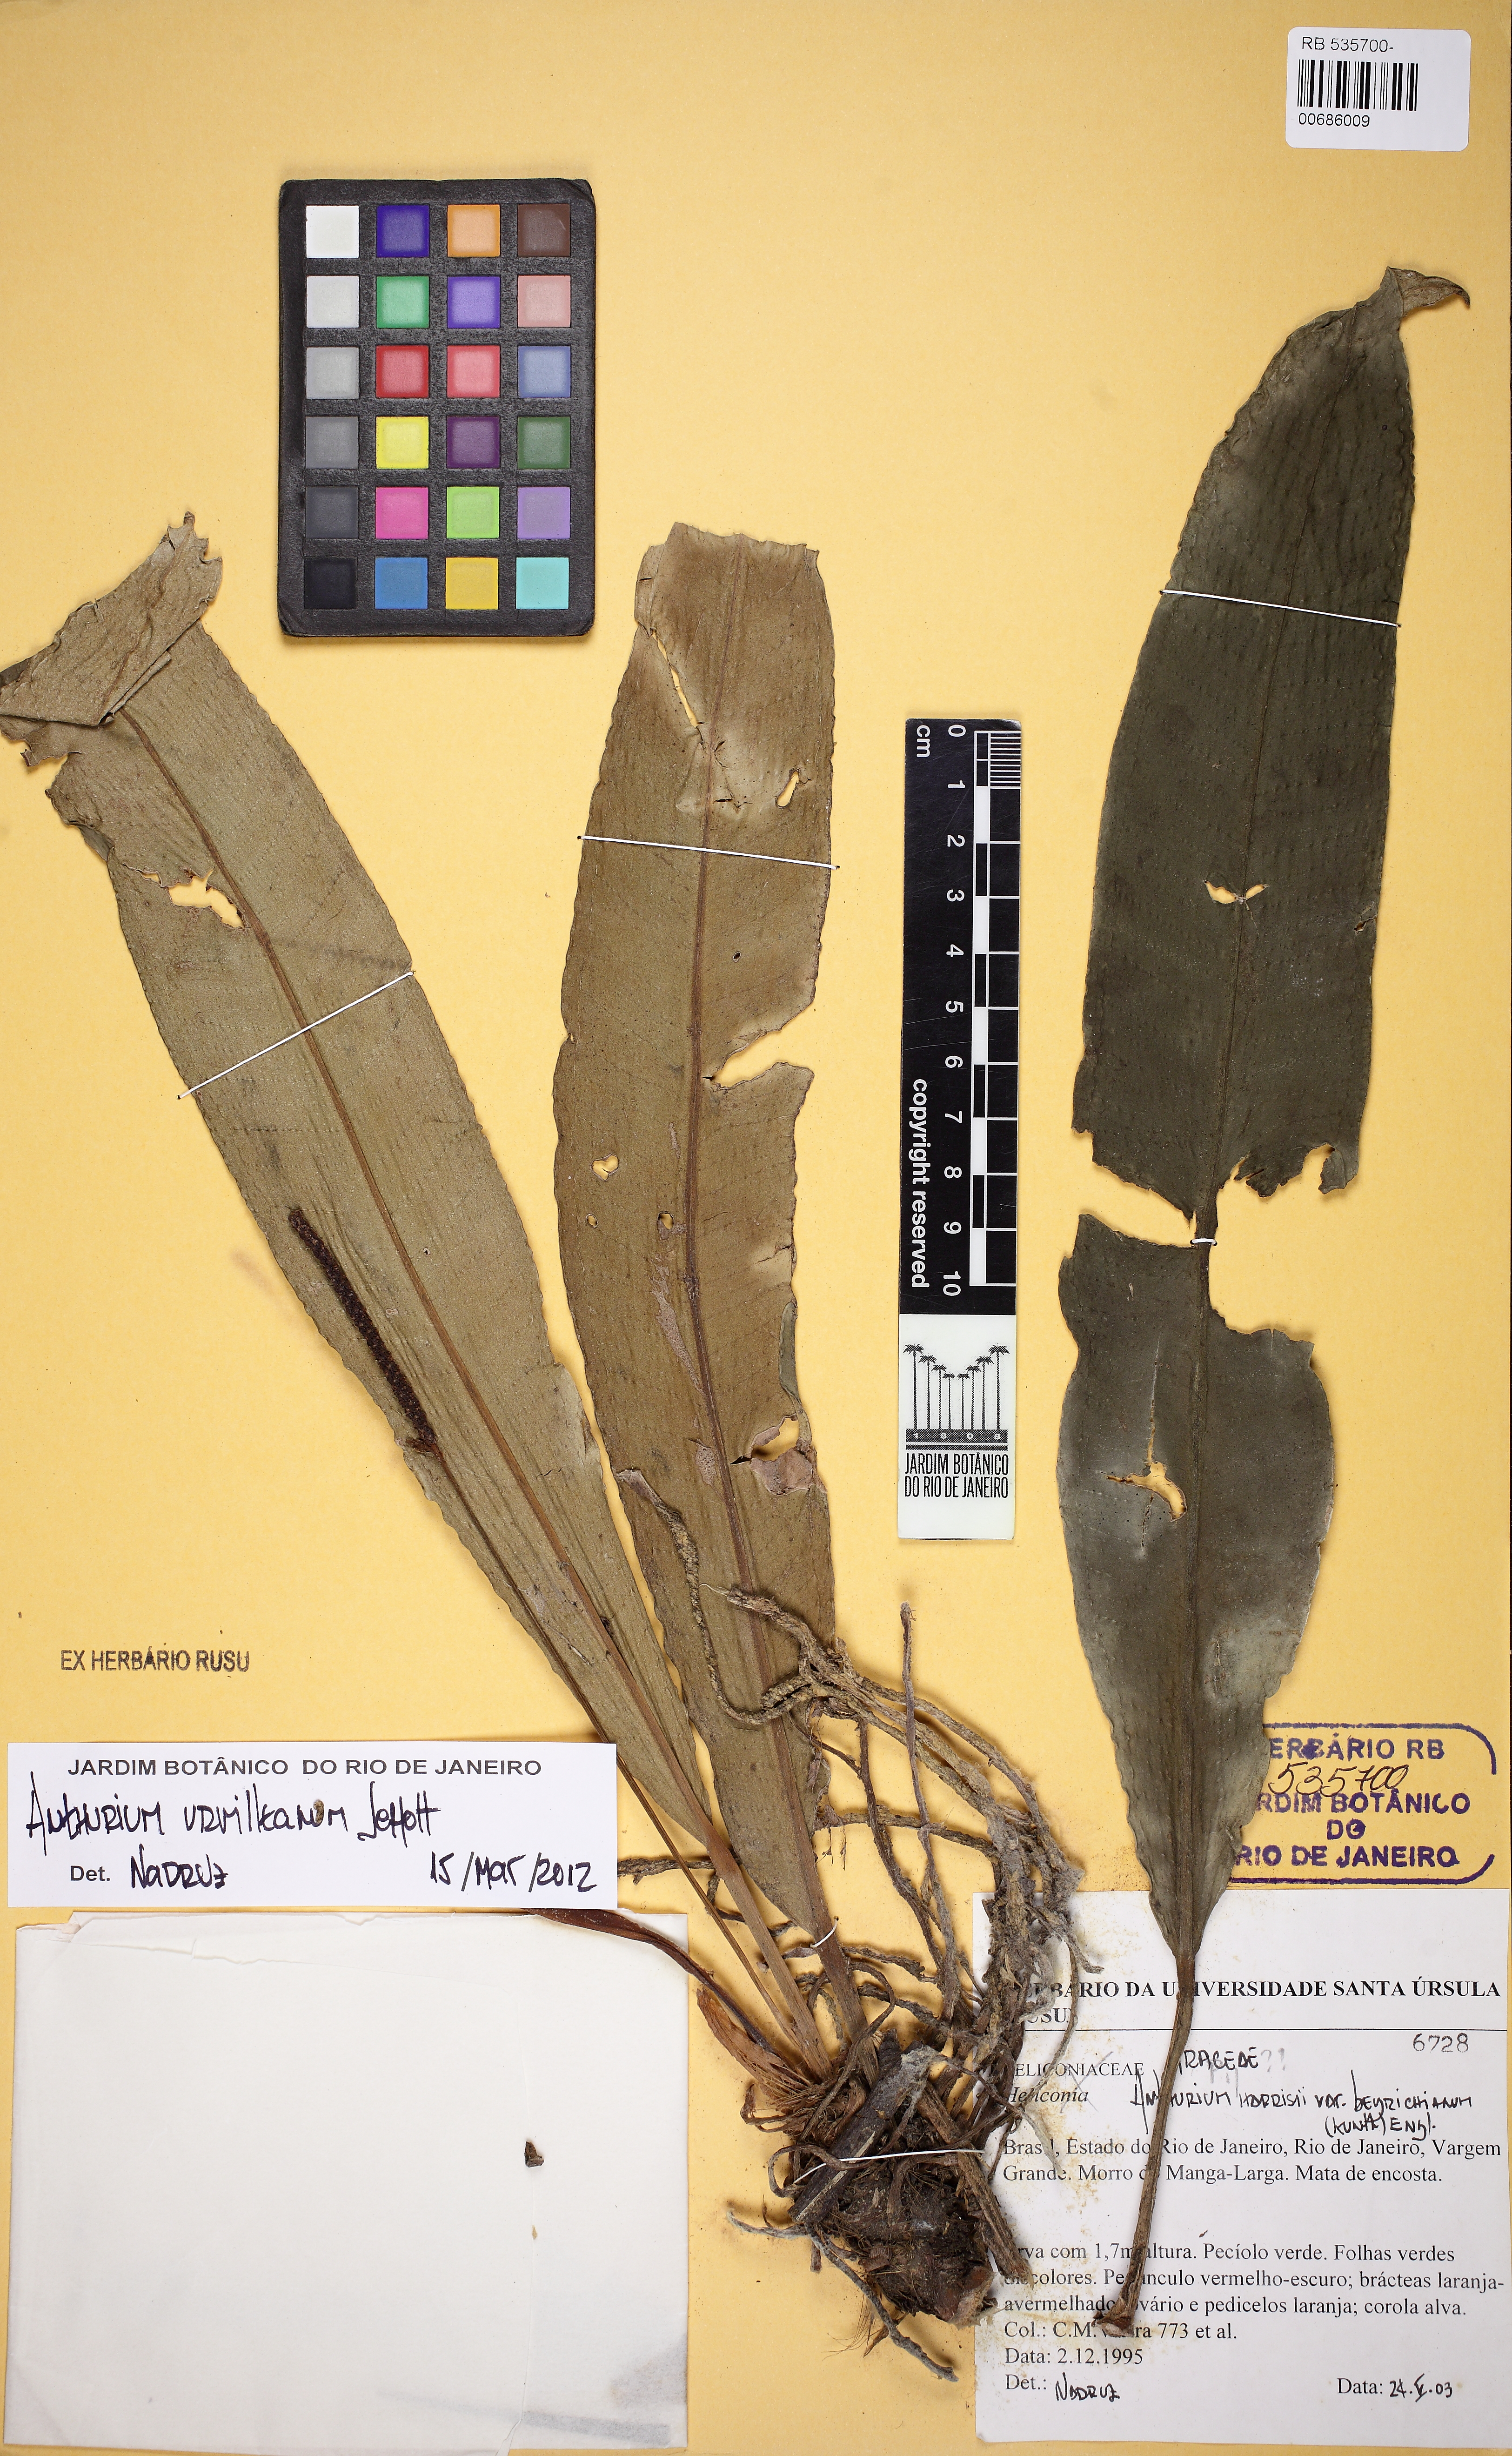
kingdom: Plantae
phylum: Tracheophyta
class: Liliopsida
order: Alismatales
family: Araceae
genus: Anthurium
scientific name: Anthurium urvilleanum
